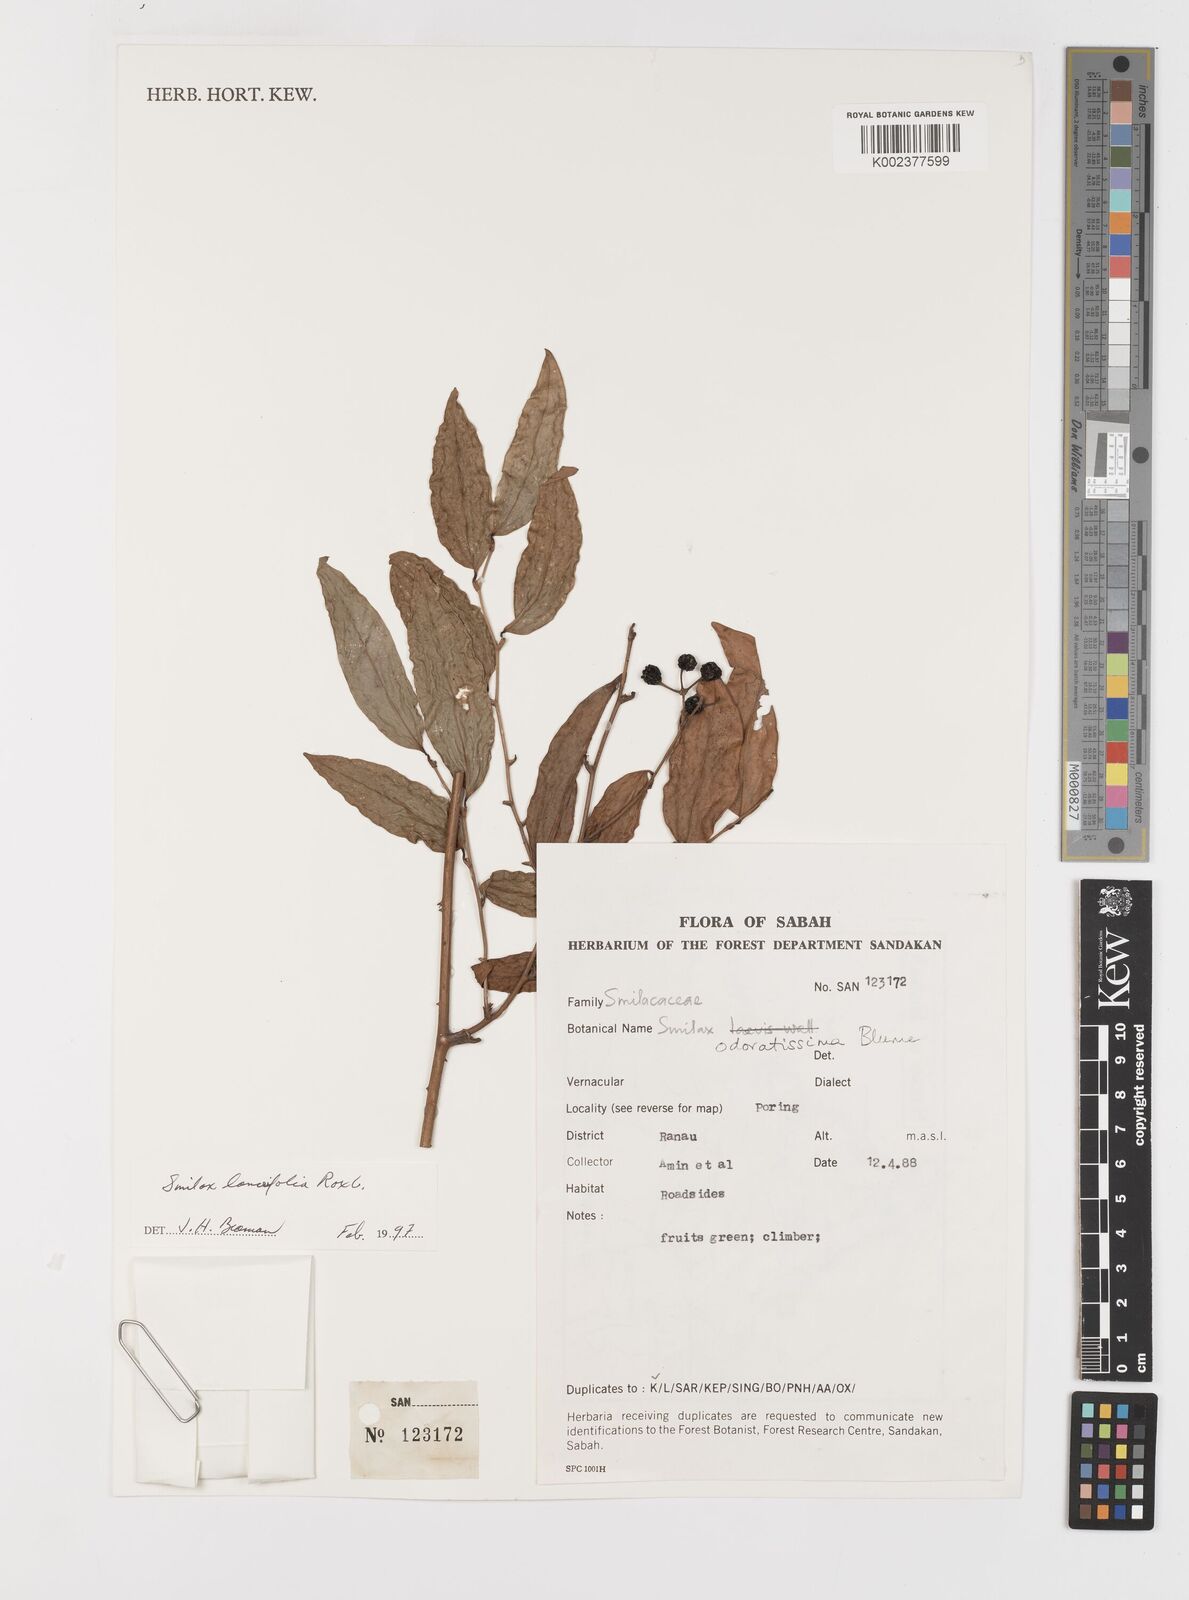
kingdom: Plantae
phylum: Tracheophyta
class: Liliopsida
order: Liliales
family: Smilacaceae
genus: Smilax
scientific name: Smilax lanceifolia
